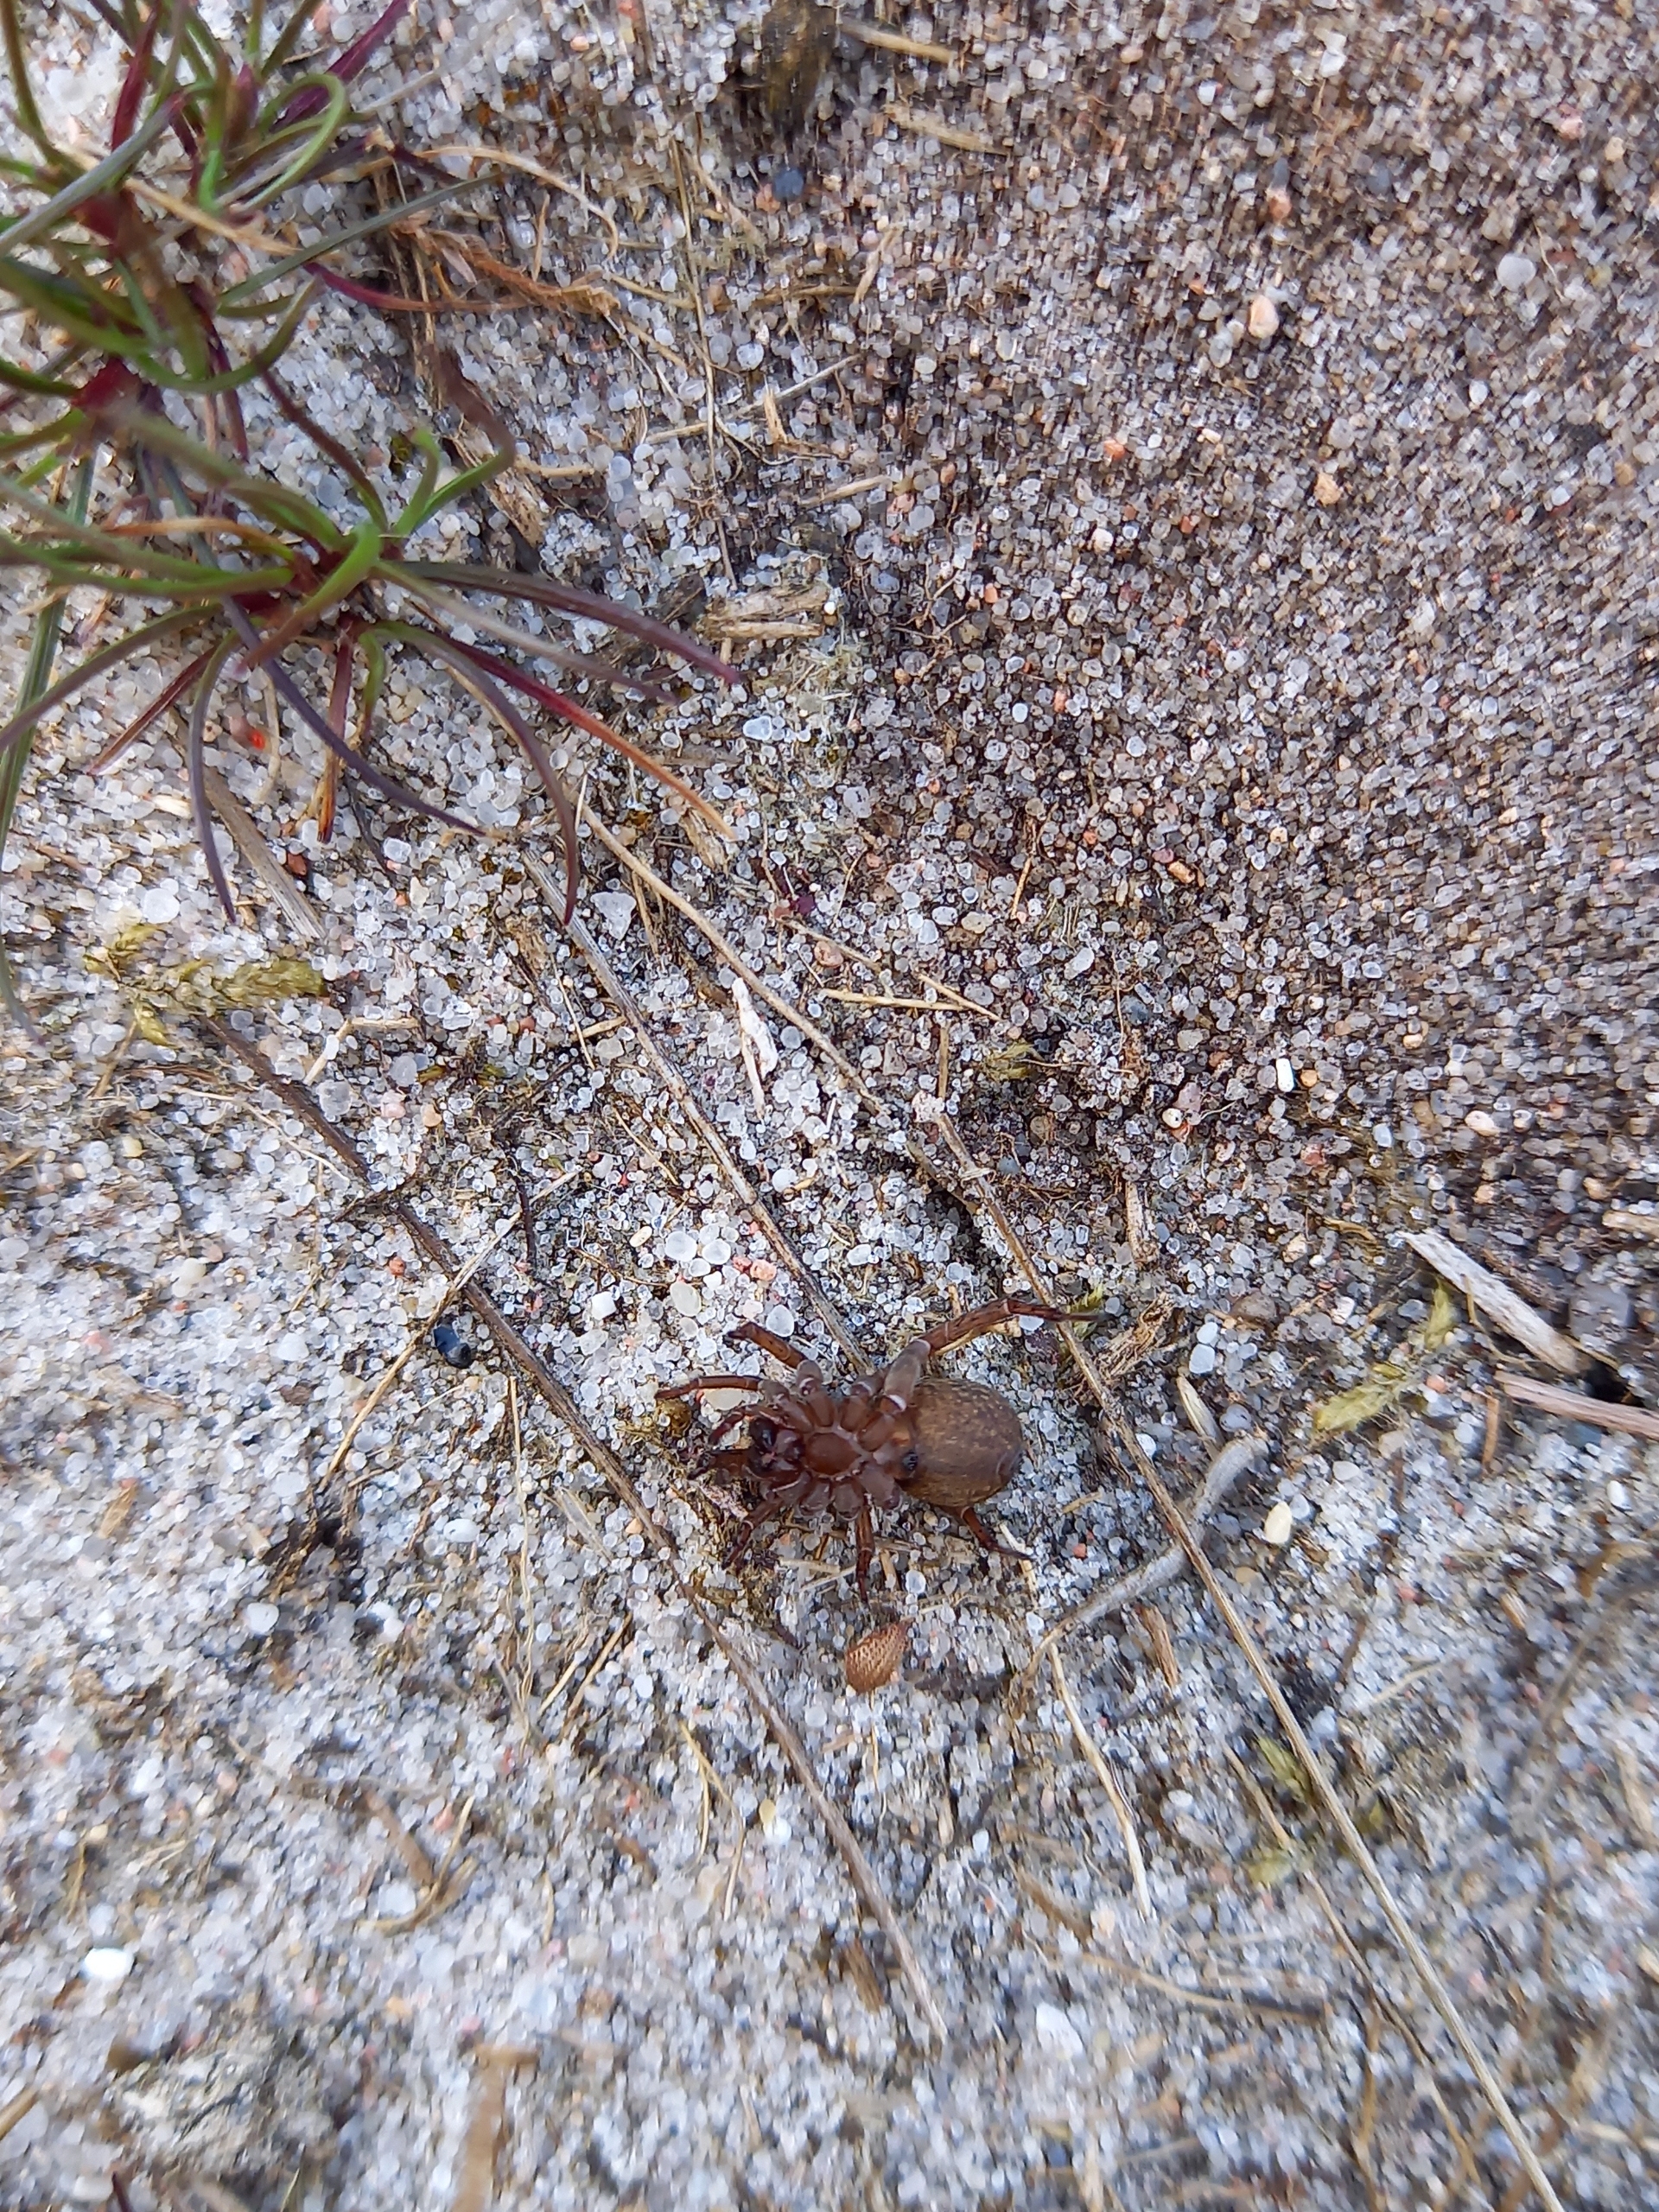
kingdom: Animalia
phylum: Arthropoda
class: Arachnida
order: Araneae
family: Lycosidae
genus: Trochosa
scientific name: Trochosa terricola
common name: Almindelig bjørneedderkop
